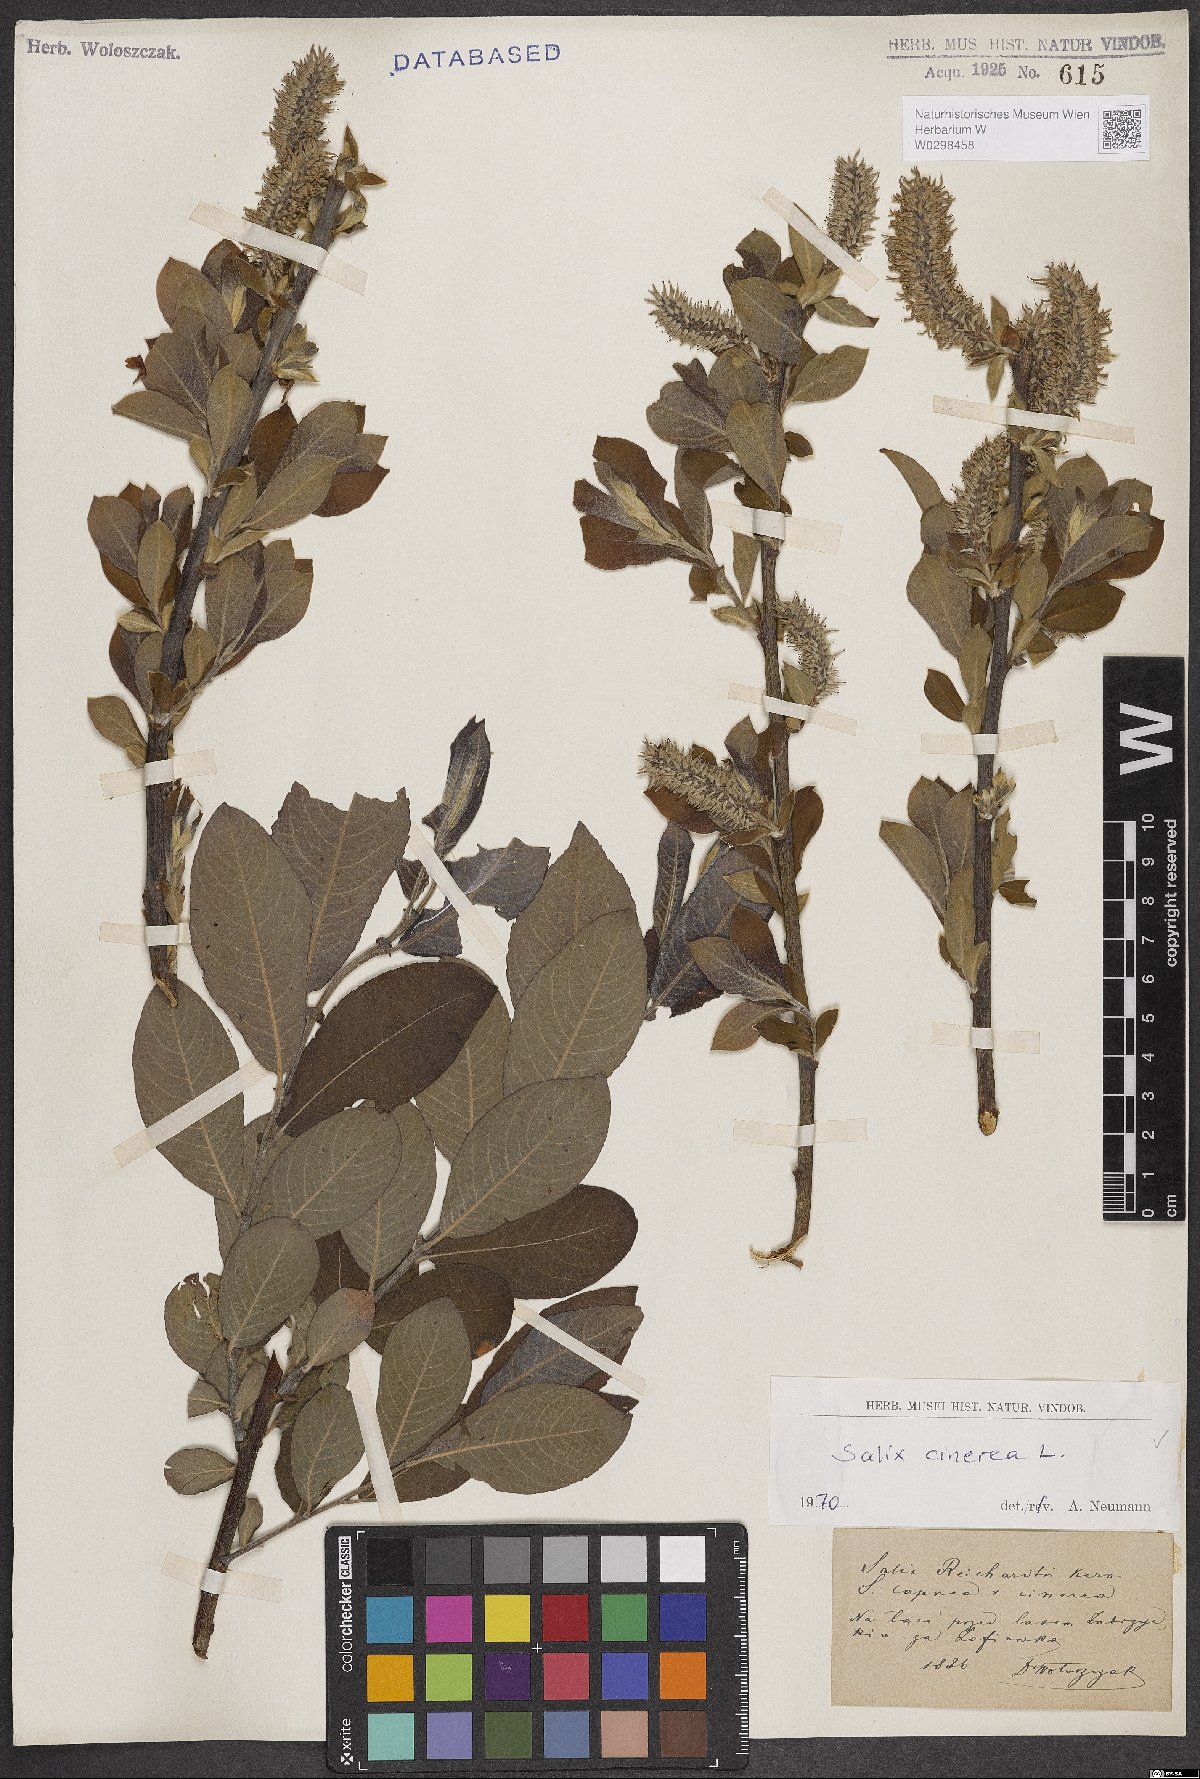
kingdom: Plantae
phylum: Tracheophyta
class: Magnoliopsida
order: Malpighiales
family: Salicaceae
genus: Salix
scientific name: Salix cinerea
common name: Common sallow
